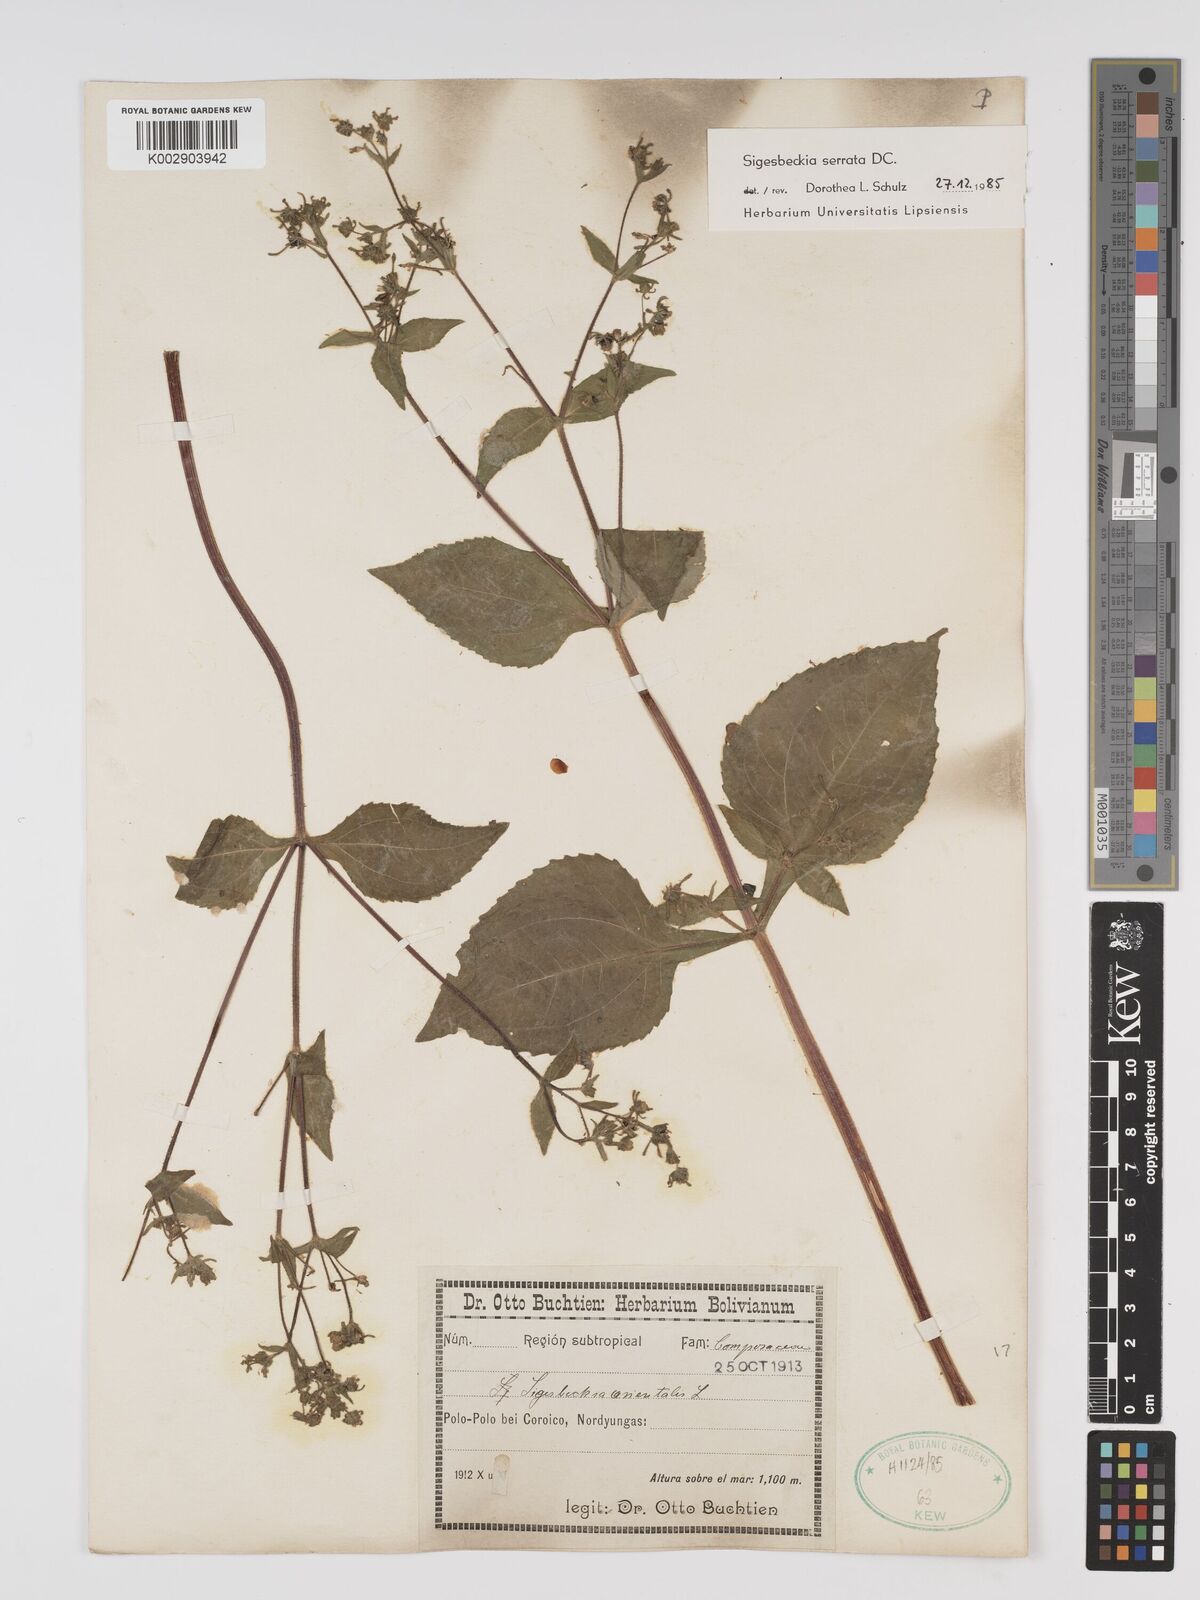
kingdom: Plantae
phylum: Tracheophyta
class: Magnoliopsida
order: Asterales
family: Asteraceae
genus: Sigesbeckia
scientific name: Sigesbeckia jorullensis
